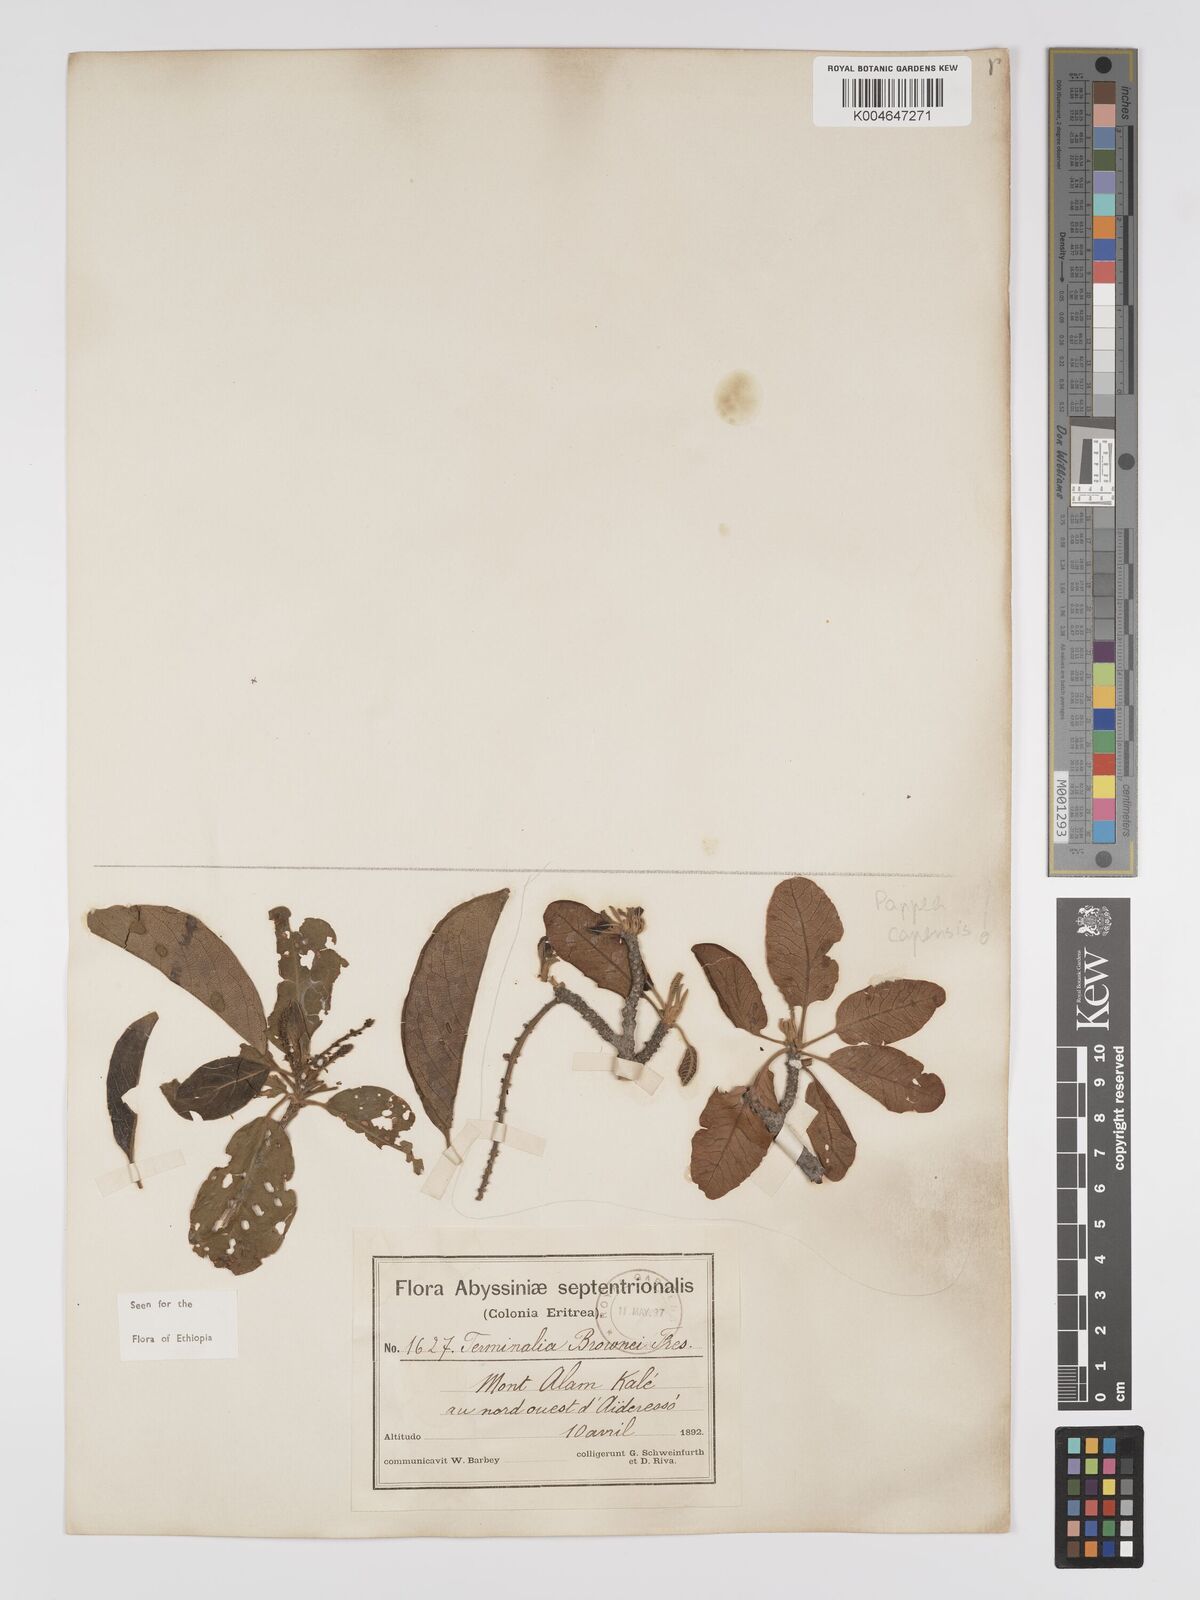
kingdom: Plantae
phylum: Tracheophyta
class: Magnoliopsida
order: Myrtales
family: Combretaceae
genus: Terminalia
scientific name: Terminalia brownii
